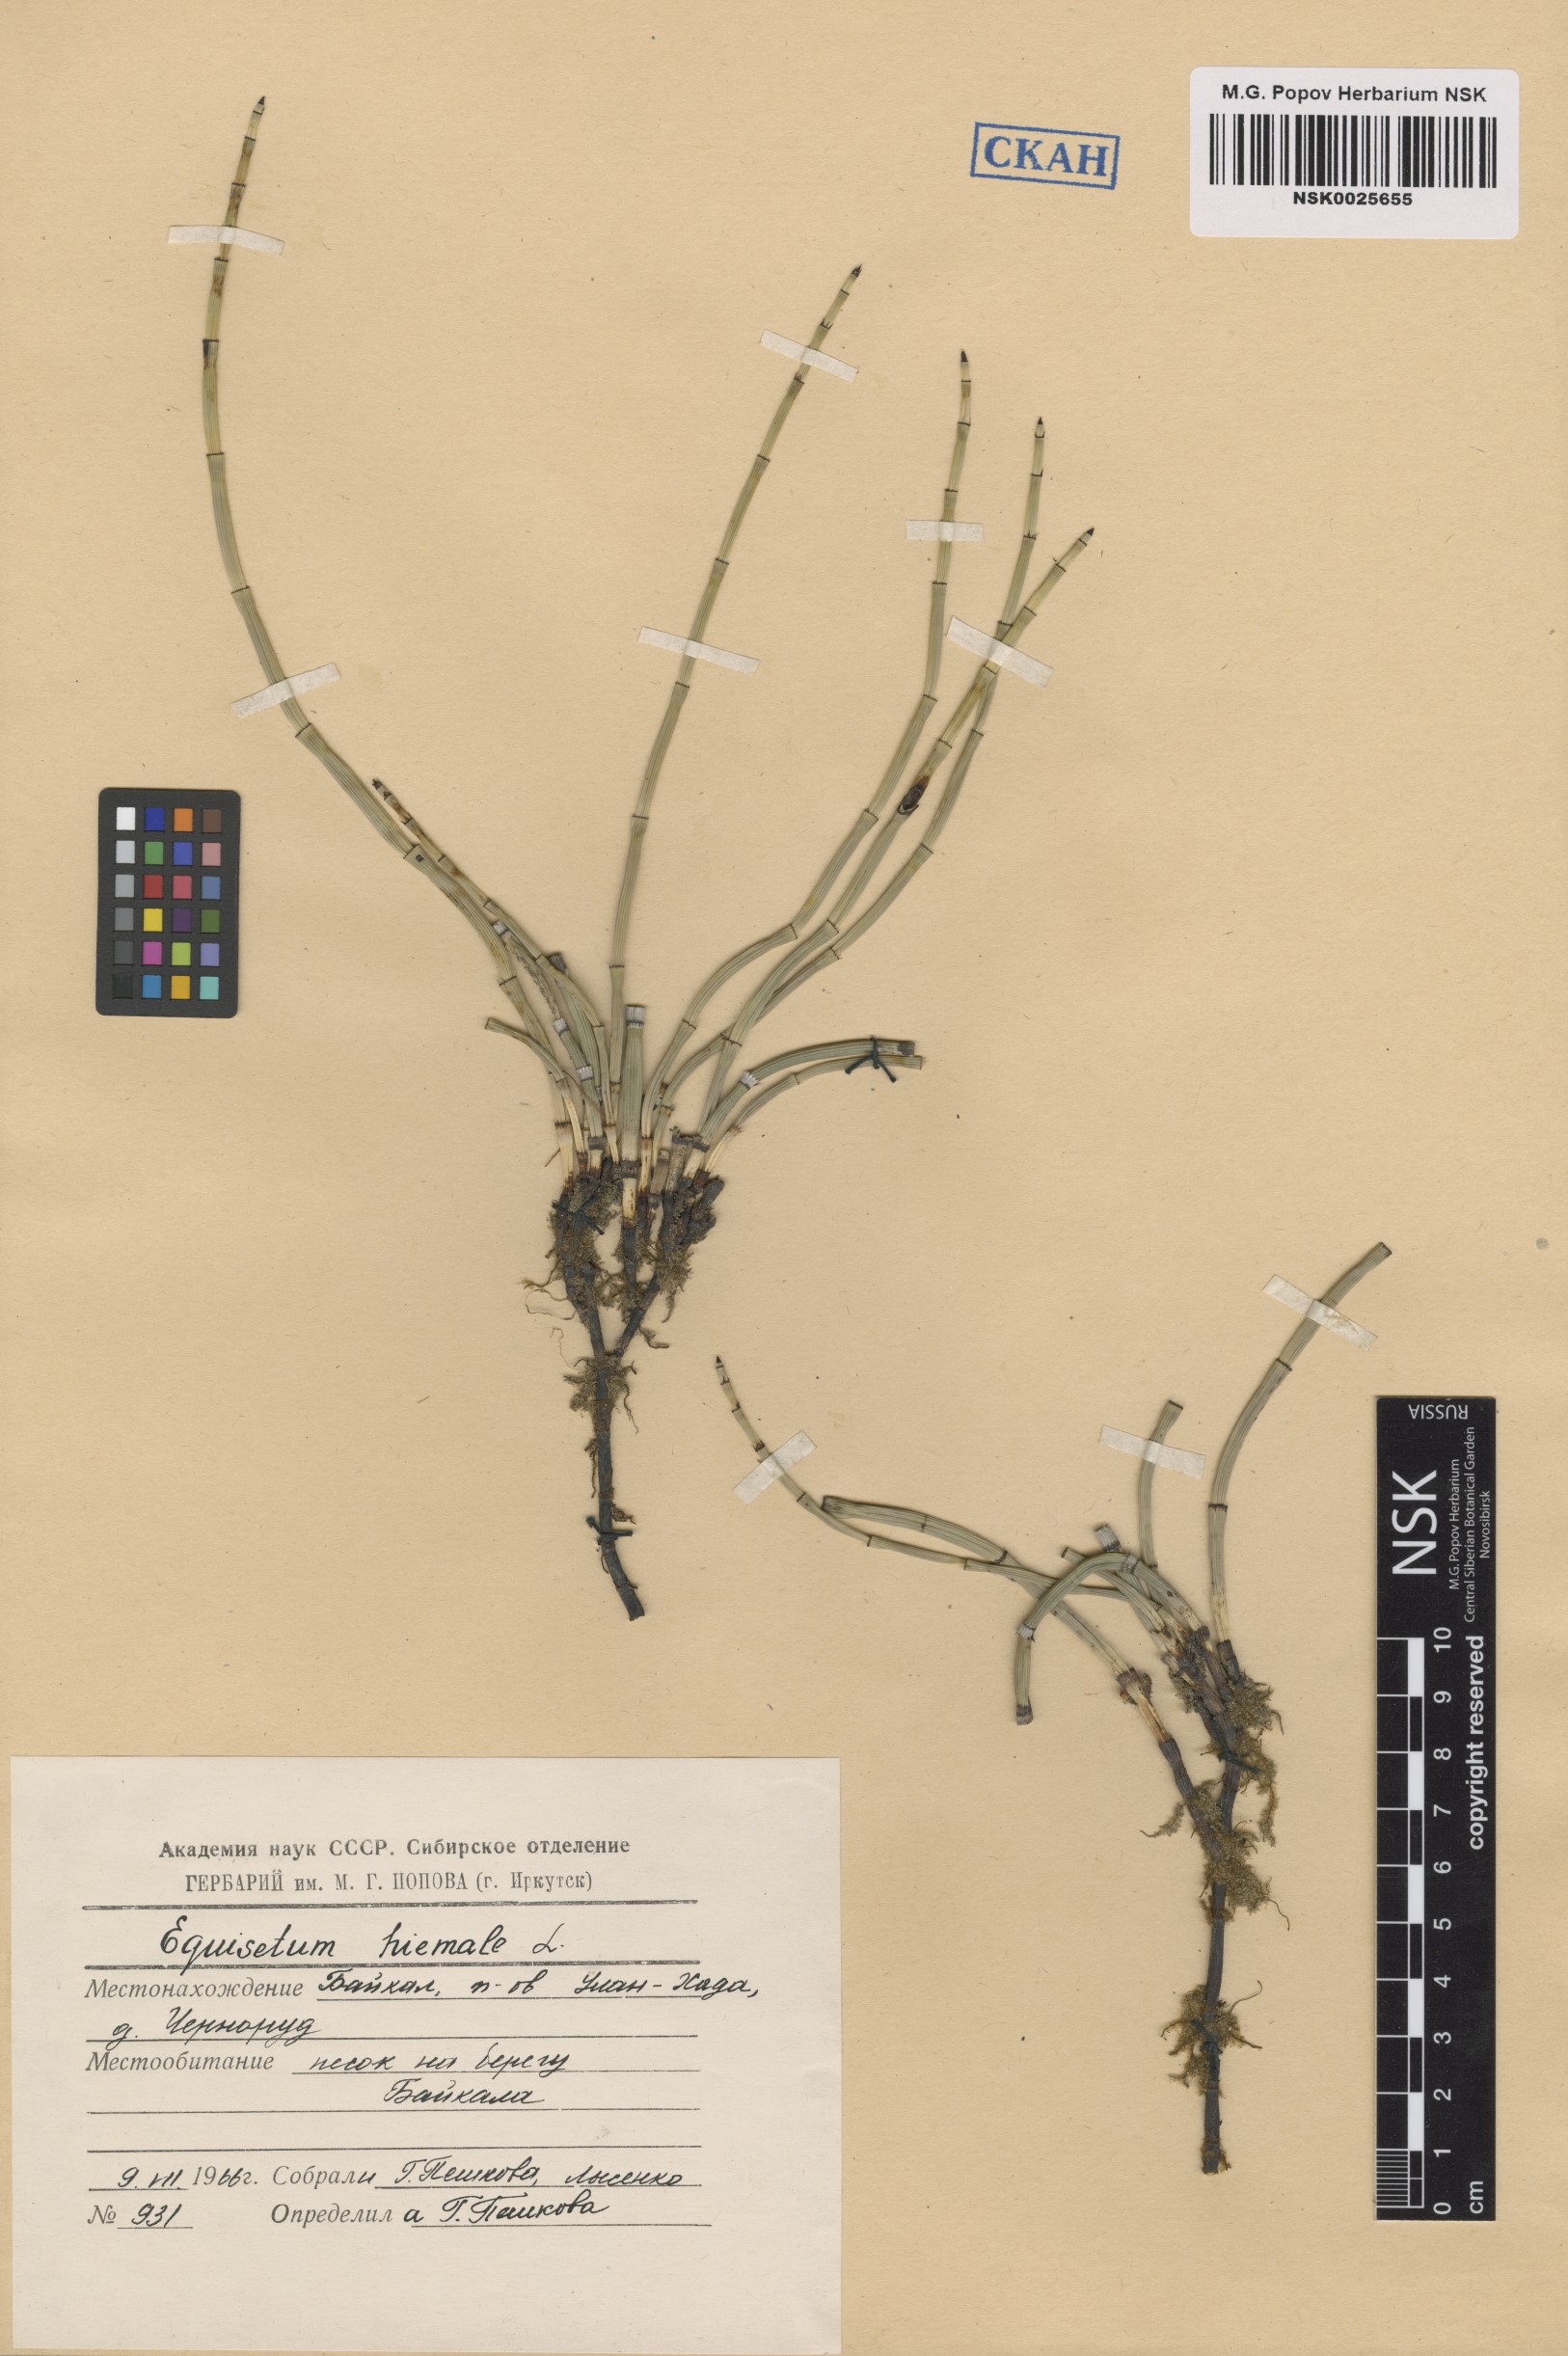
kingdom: Plantae
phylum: Tracheophyta
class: Polypodiopsida
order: Equisetales
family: Equisetaceae
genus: Equisetum
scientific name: Equisetum hyemale
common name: Rough horsetail
